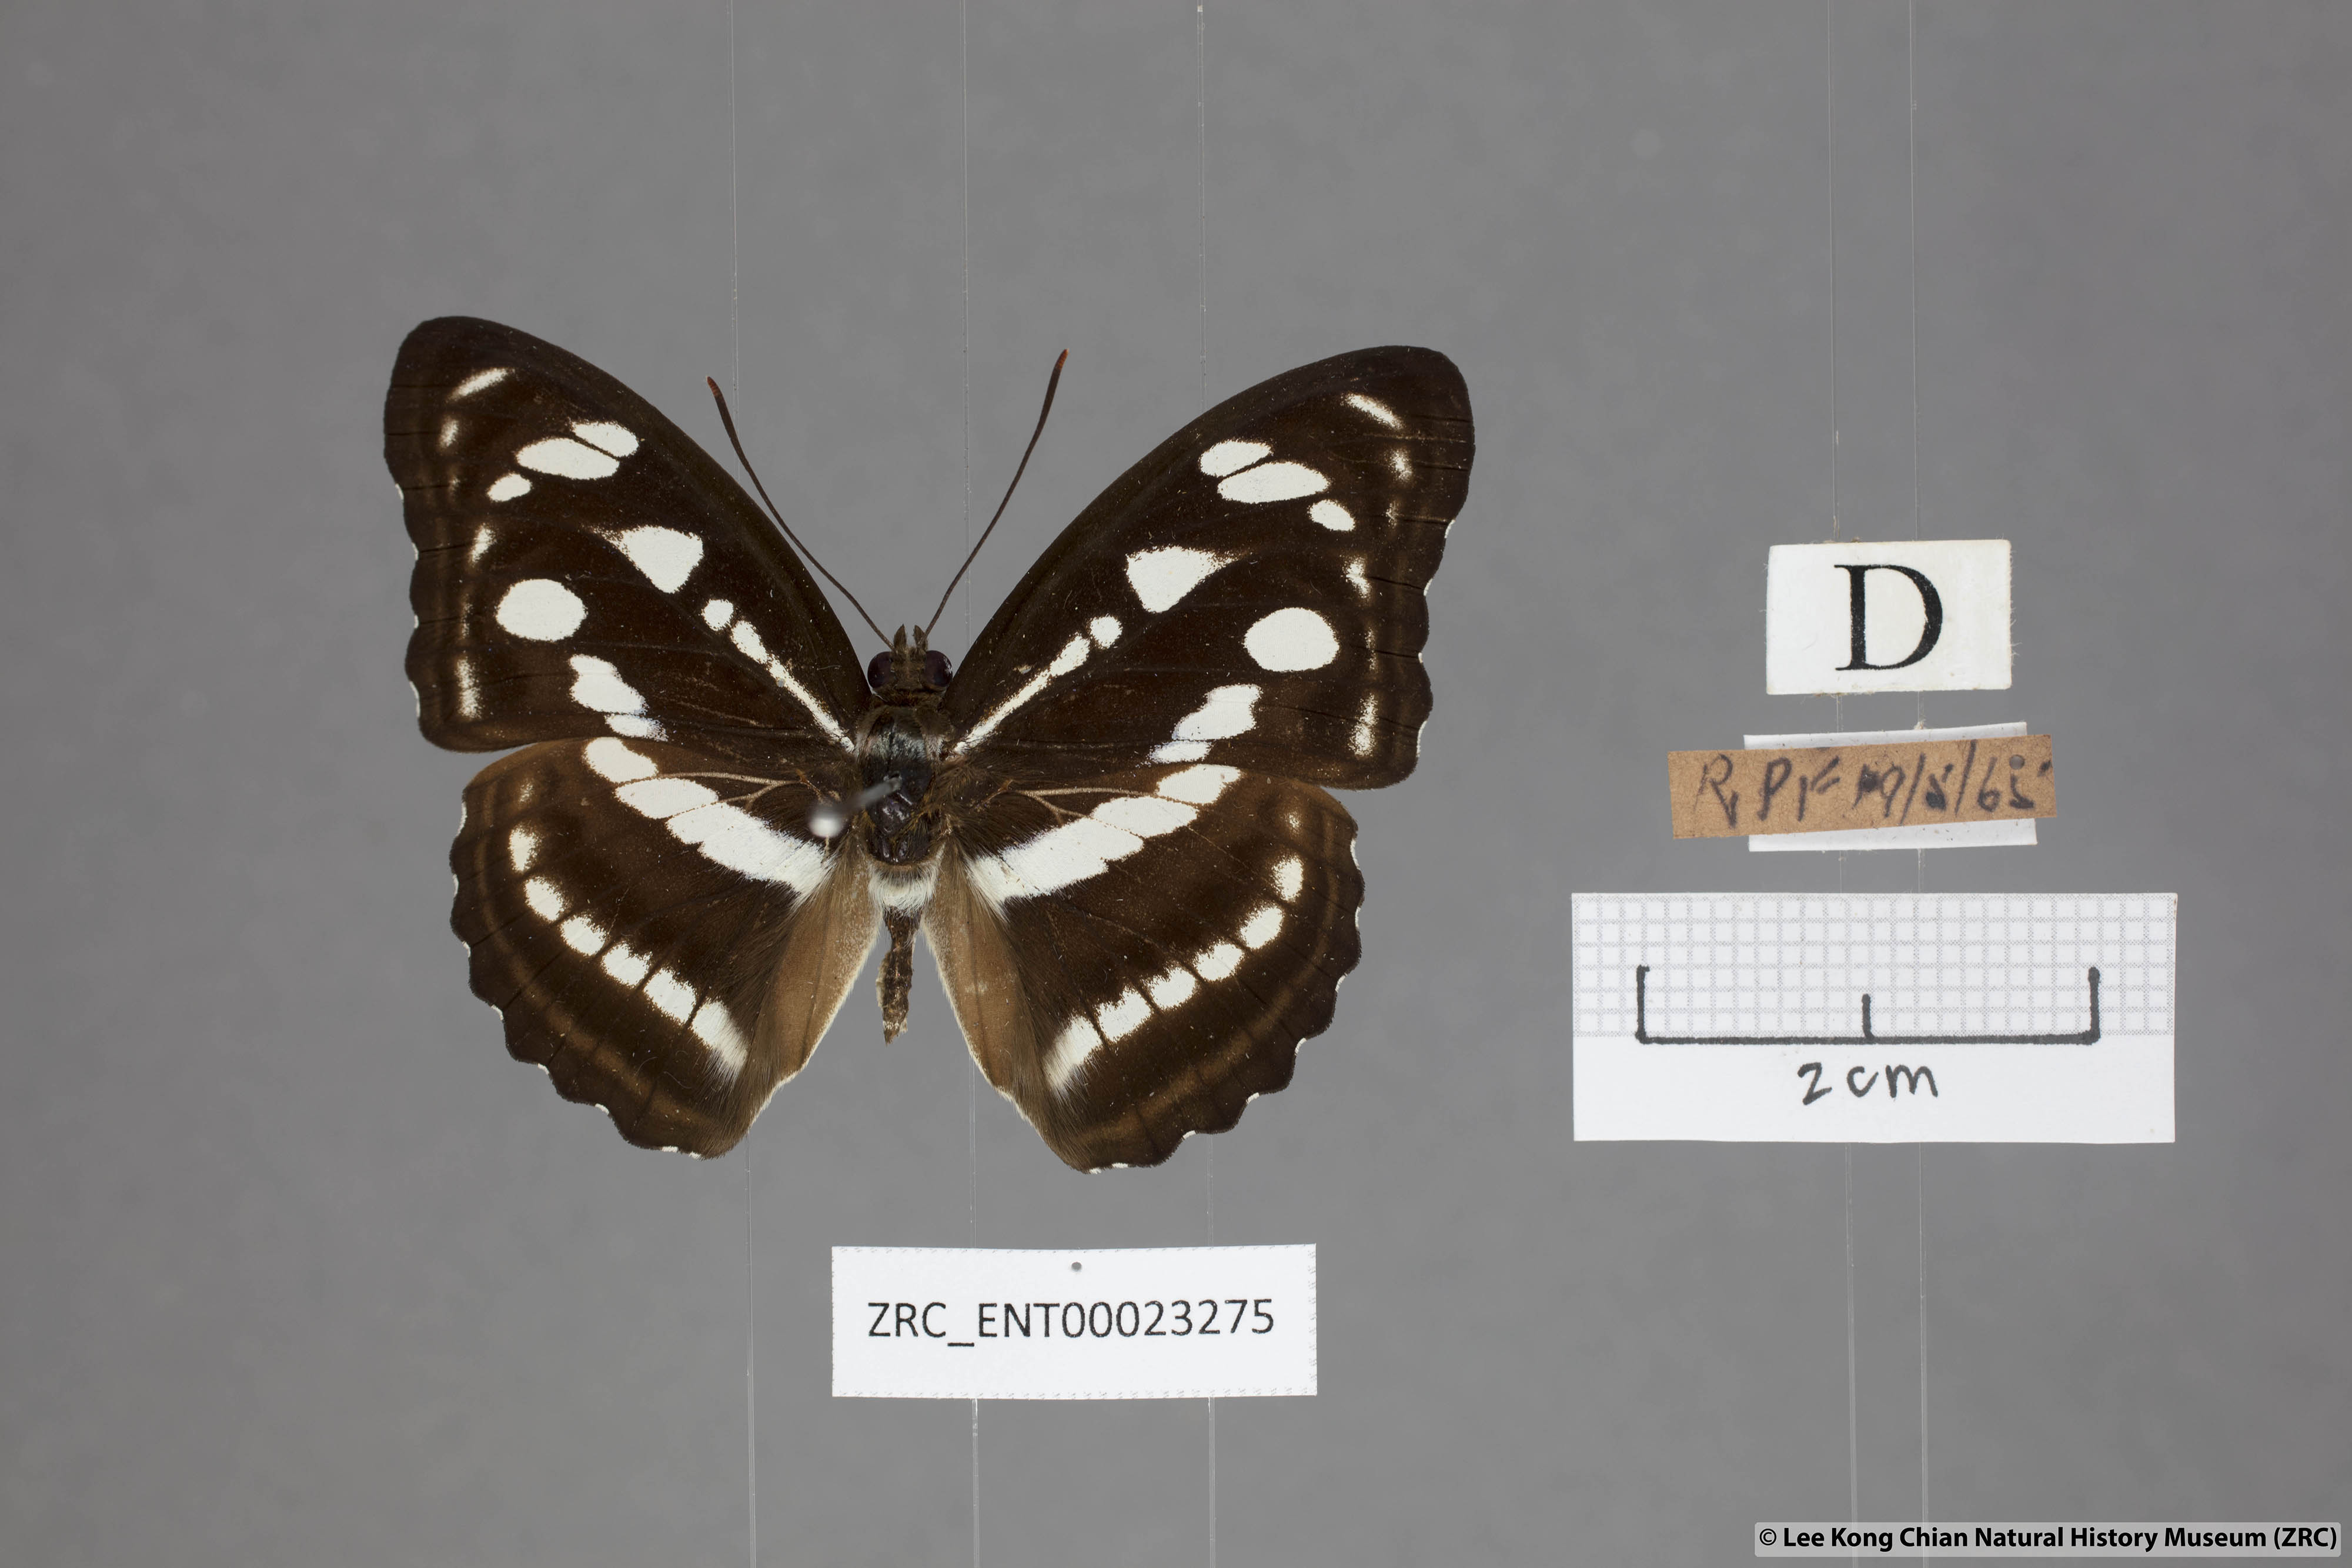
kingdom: Animalia
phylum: Arthropoda
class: Insecta
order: Lepidoptera
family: Nymphalidae
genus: Parathyma
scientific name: Parathyma reta
